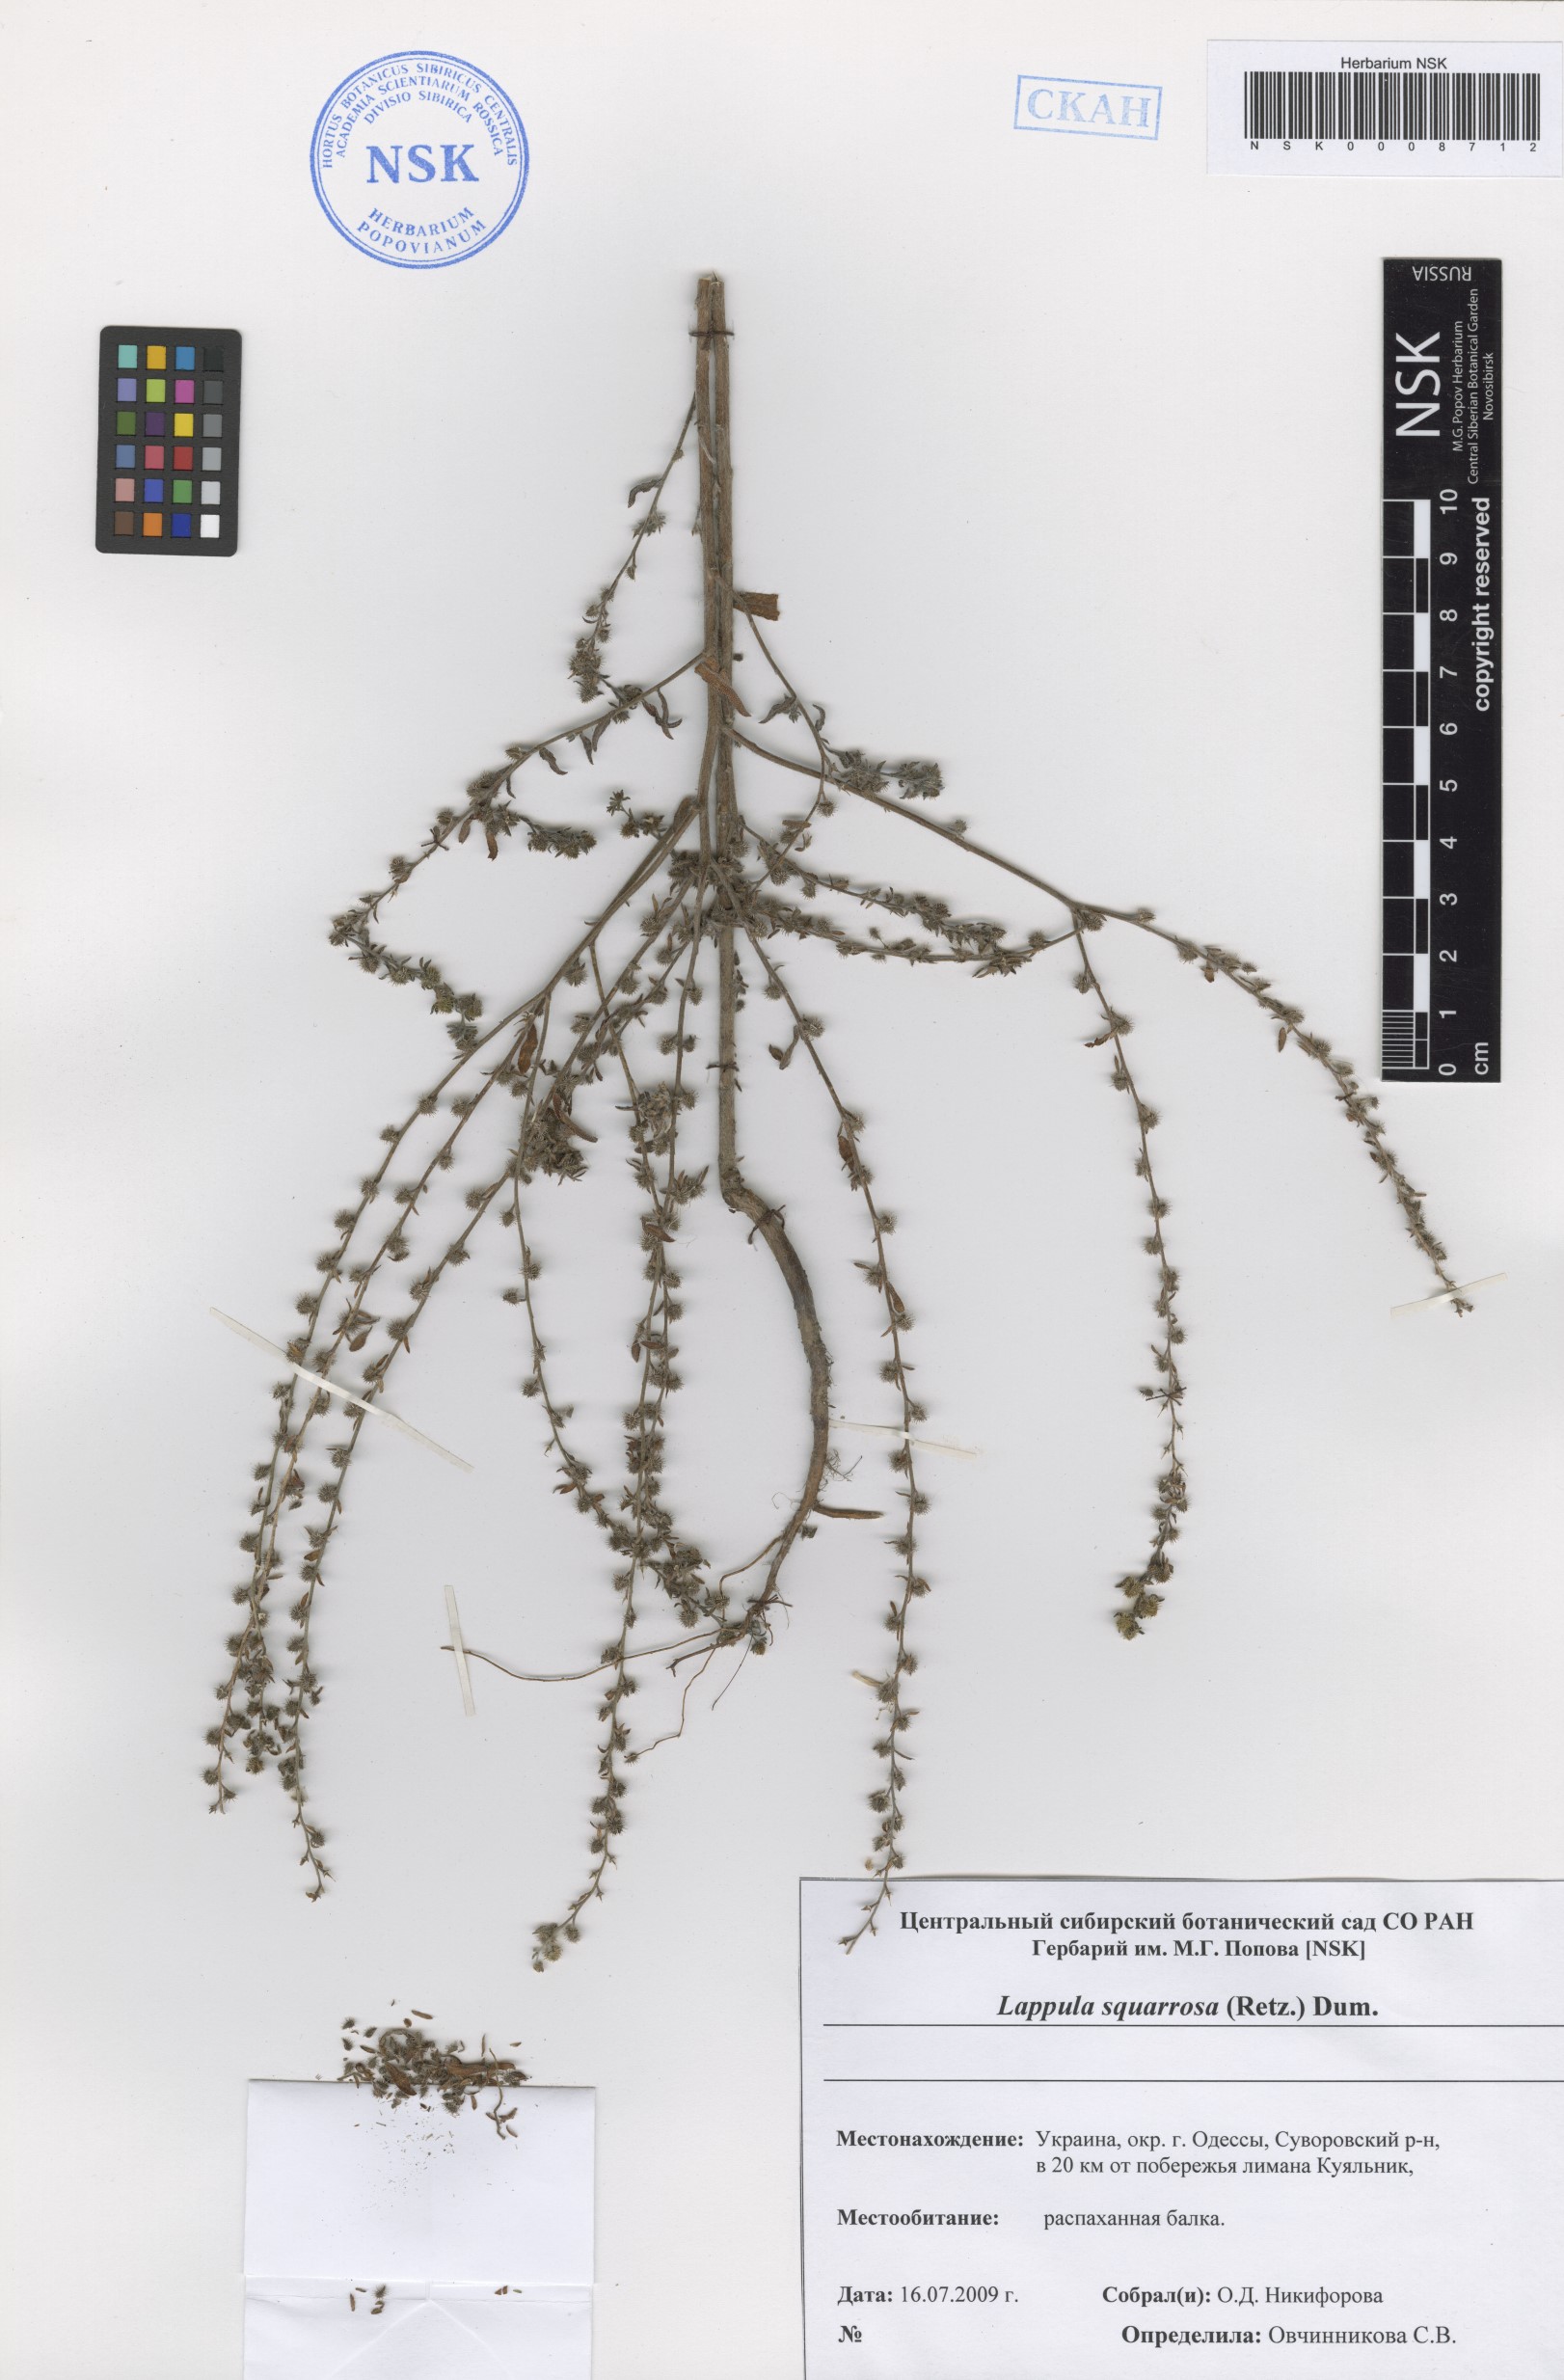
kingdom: Plantae
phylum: Tracheophyta
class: Magnoliopsida
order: Boraginales
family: Boraginaceae
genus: Lappula
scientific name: Lappula squarrosa
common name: European stickseed
